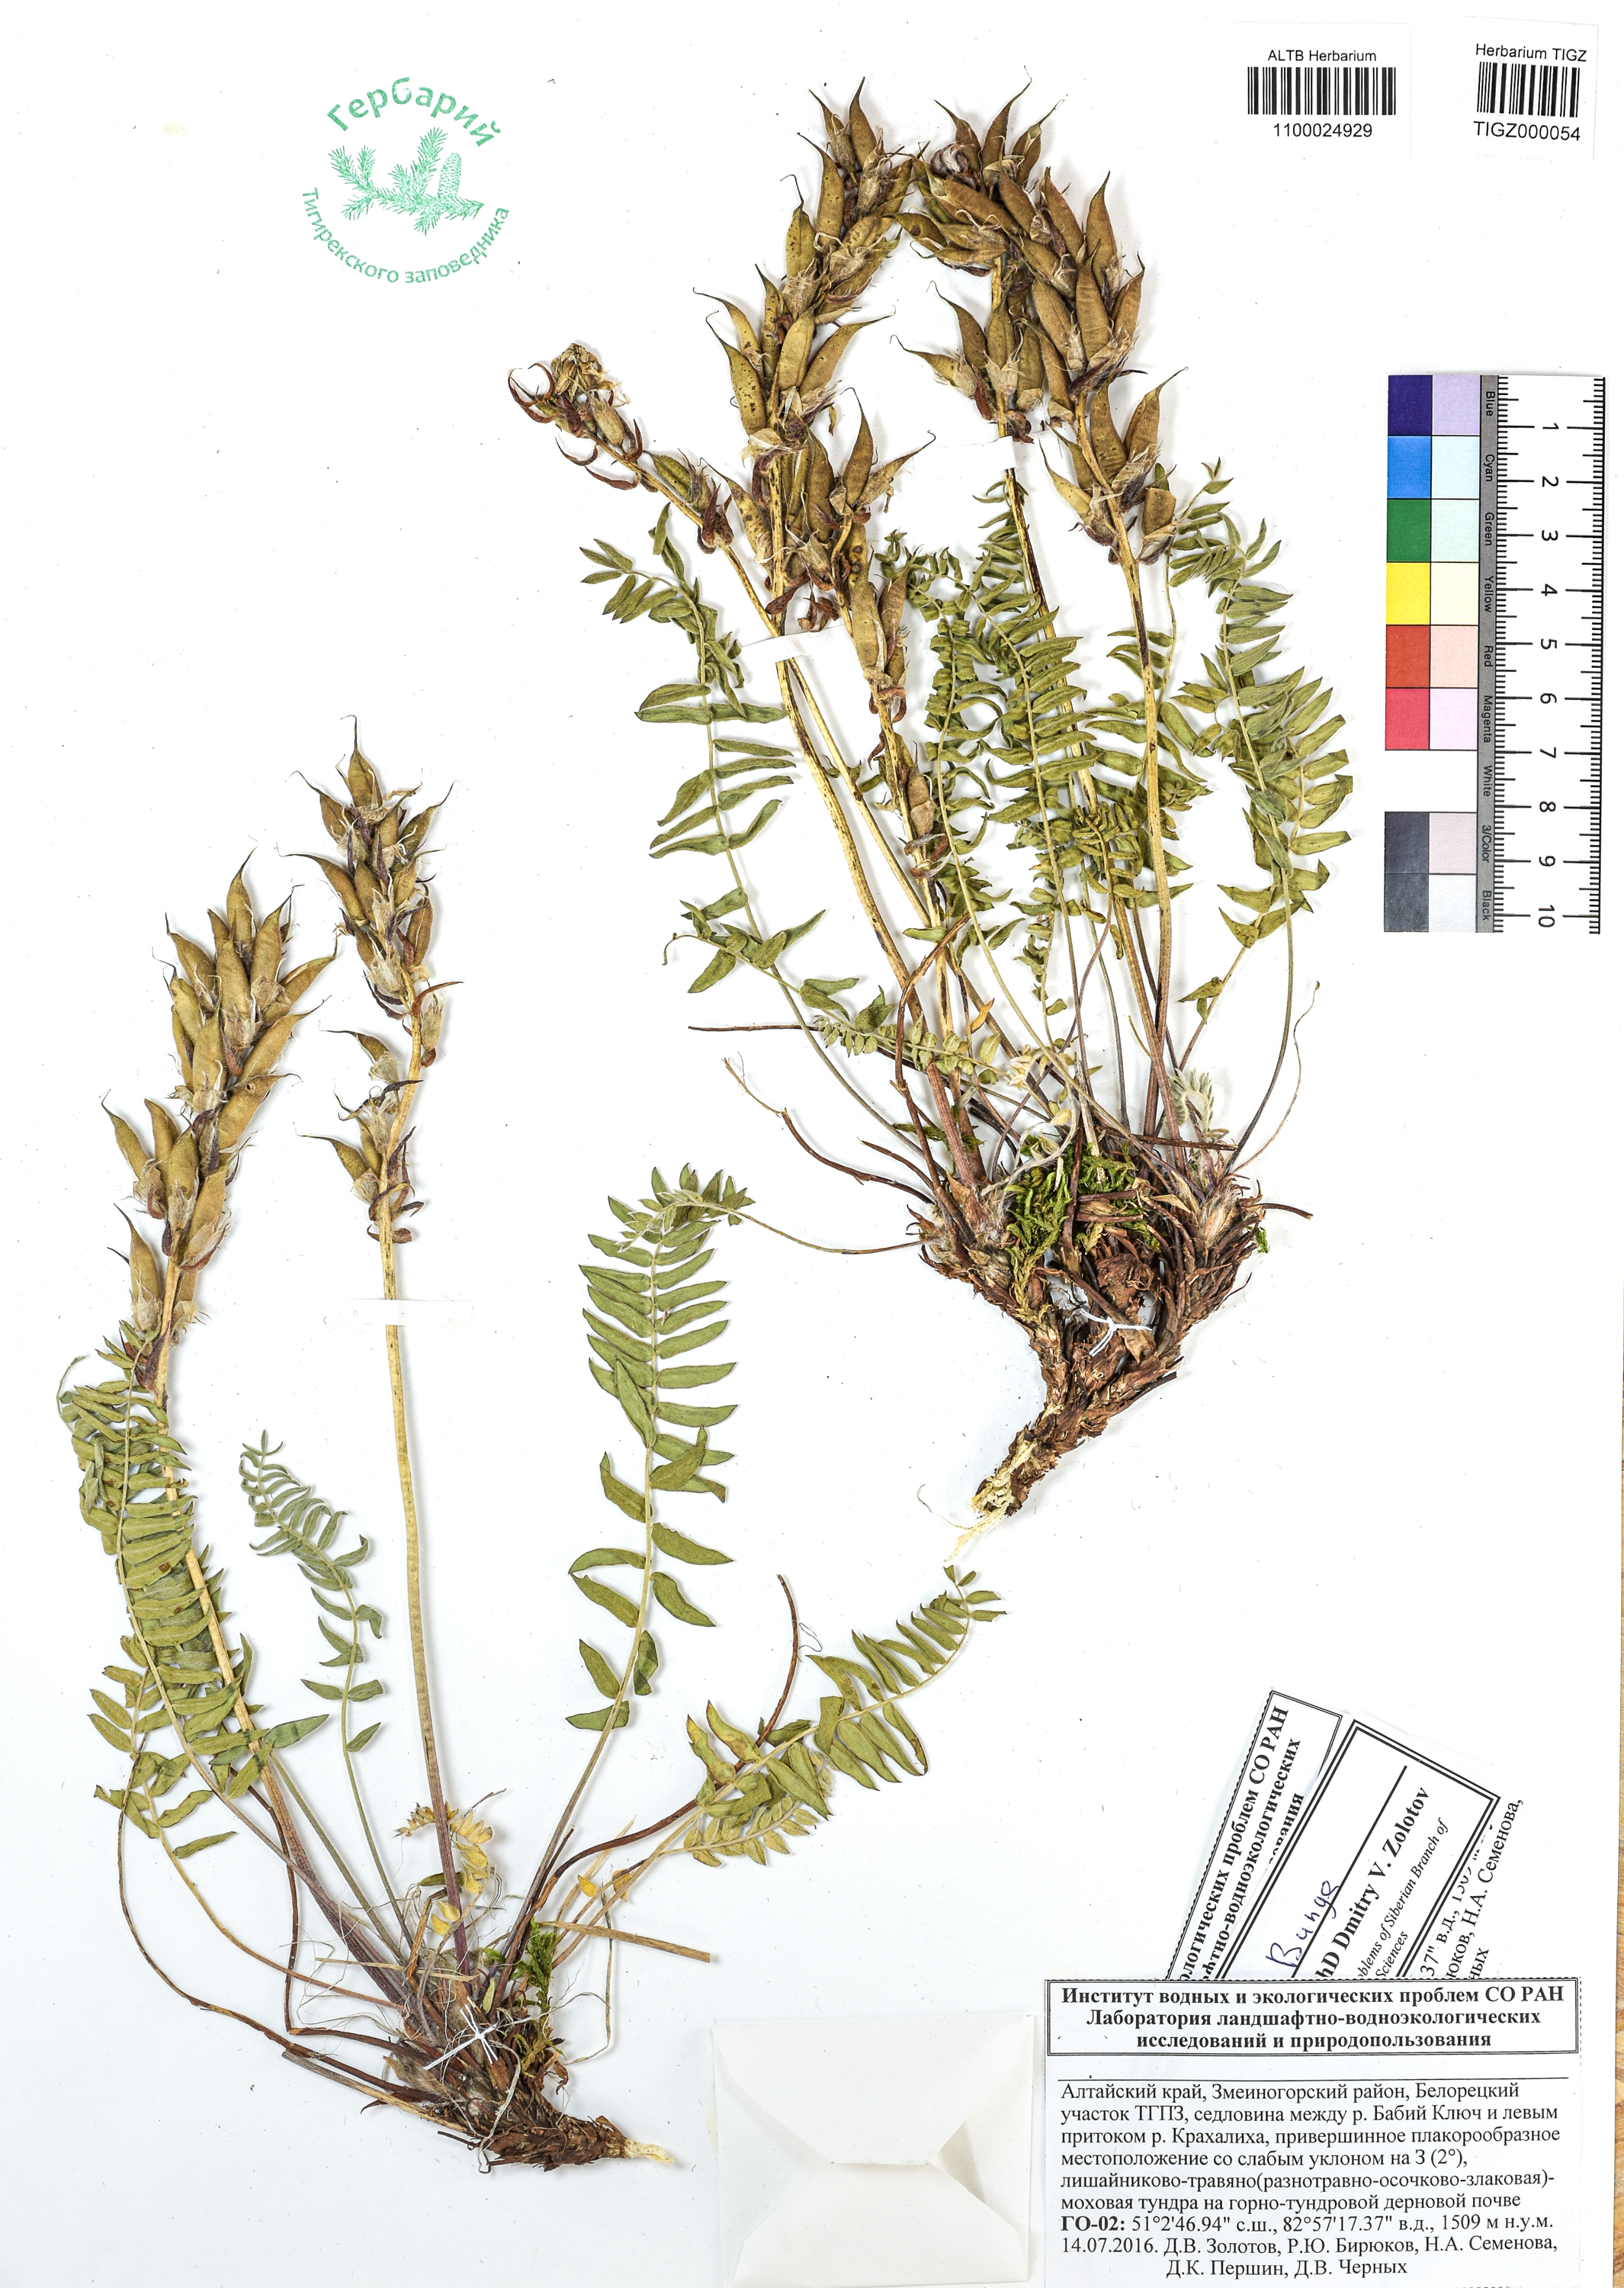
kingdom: Plantae
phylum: Tracheophyta
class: Magnoliopsida
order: Fabales
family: Fabaceae
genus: Oxytropis
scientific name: Oxytropis ambigua
